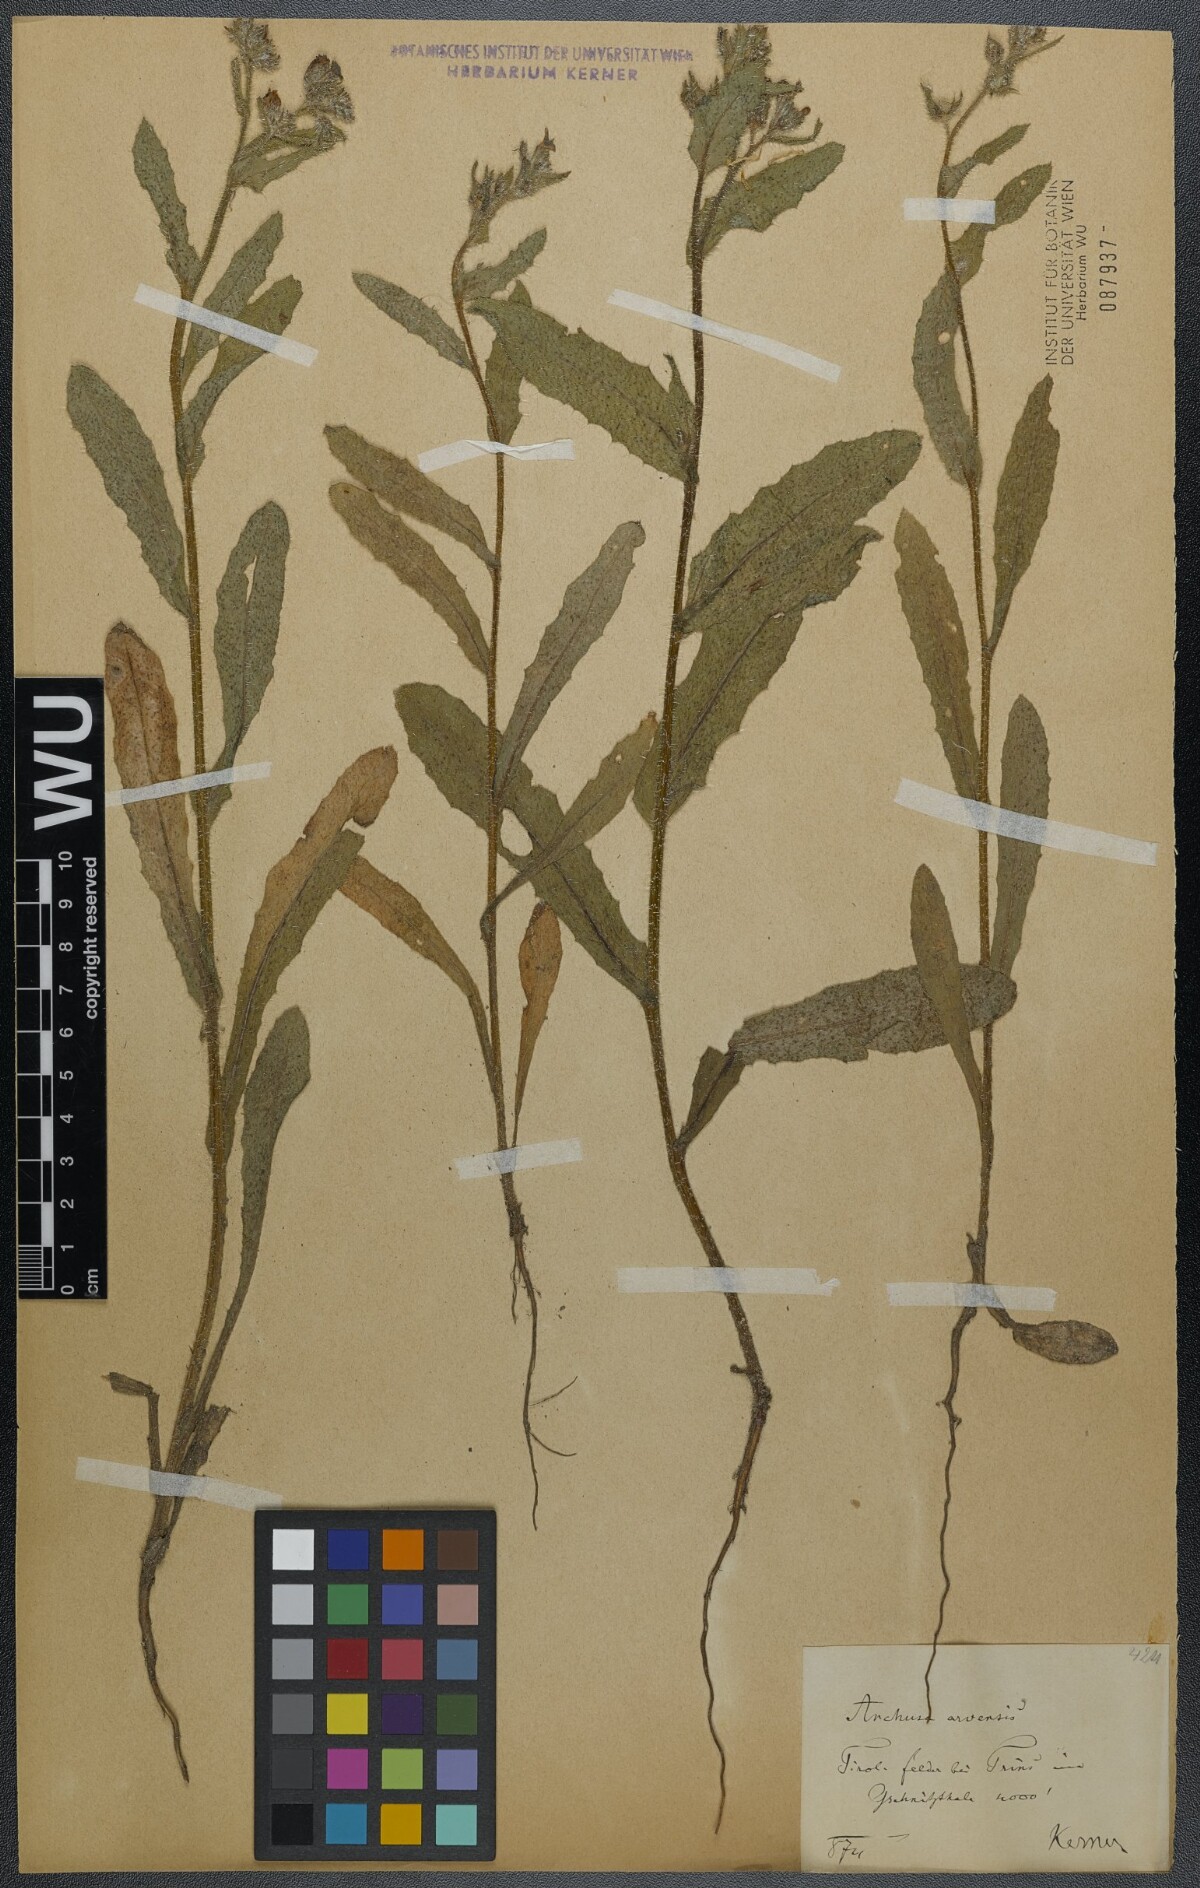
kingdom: Plantae
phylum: Tracheophyta
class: Magnoliopsida
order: Boraginales
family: Boraginaceae
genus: Lycopsis
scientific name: Lycopsis arvensis
